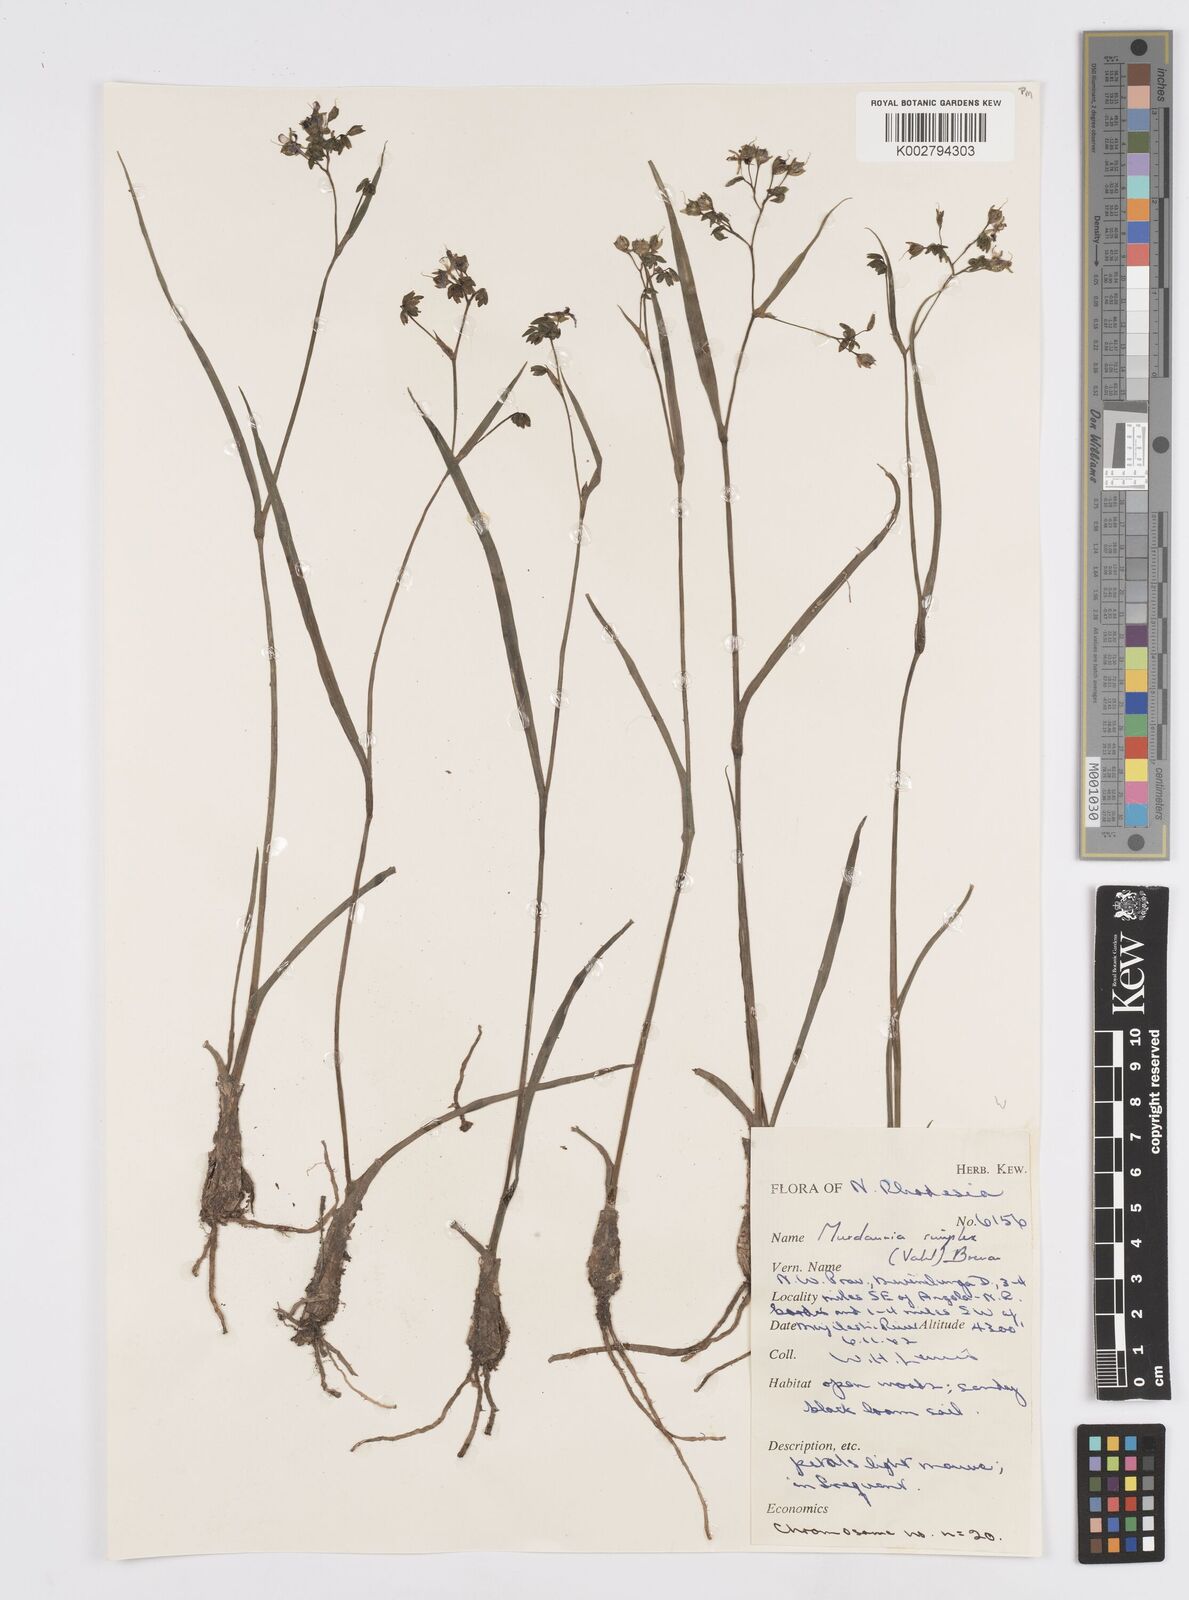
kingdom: Plantae
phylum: Tracheophyta
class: Liliopsida
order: Commelinales
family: Commelinaceae
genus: Murdannia
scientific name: Murdannia simplex
